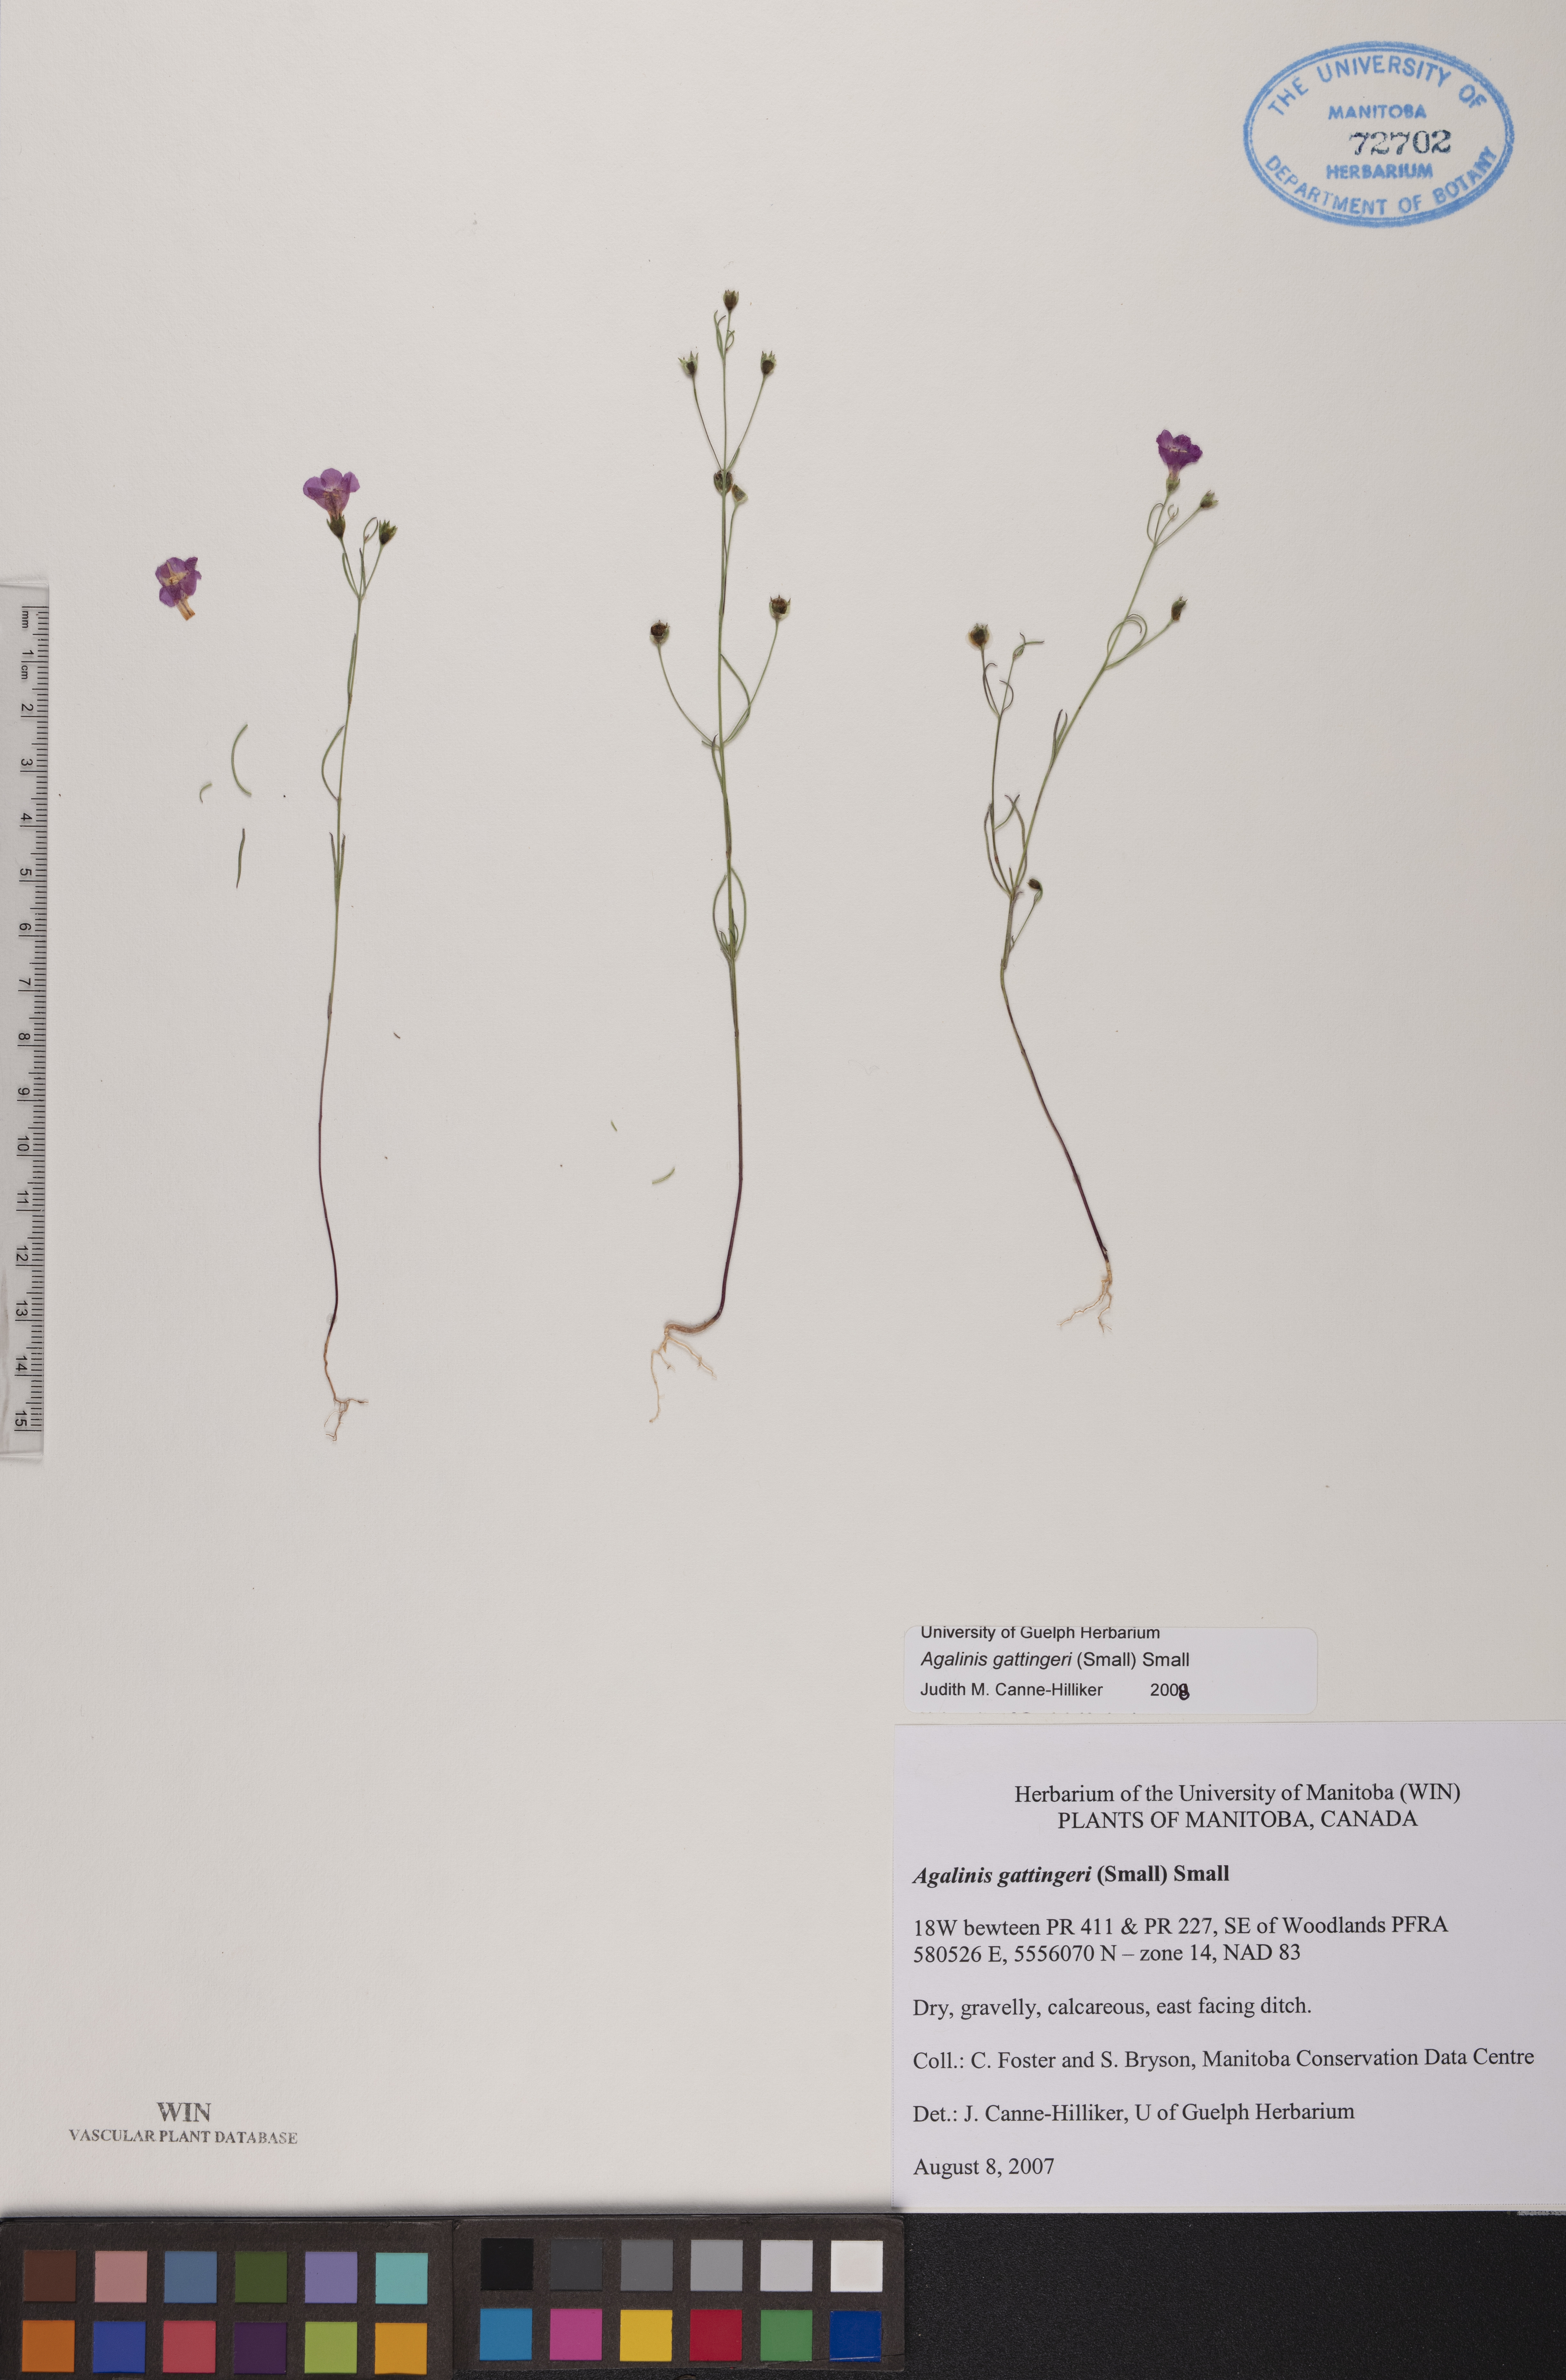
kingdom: Plantae
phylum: Tracheophyta
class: Magnoliopsida
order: Lamiales
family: Orobanchaceae
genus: Agalinis
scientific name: Agalinis gattingeri
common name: Gattinger's agalinis
